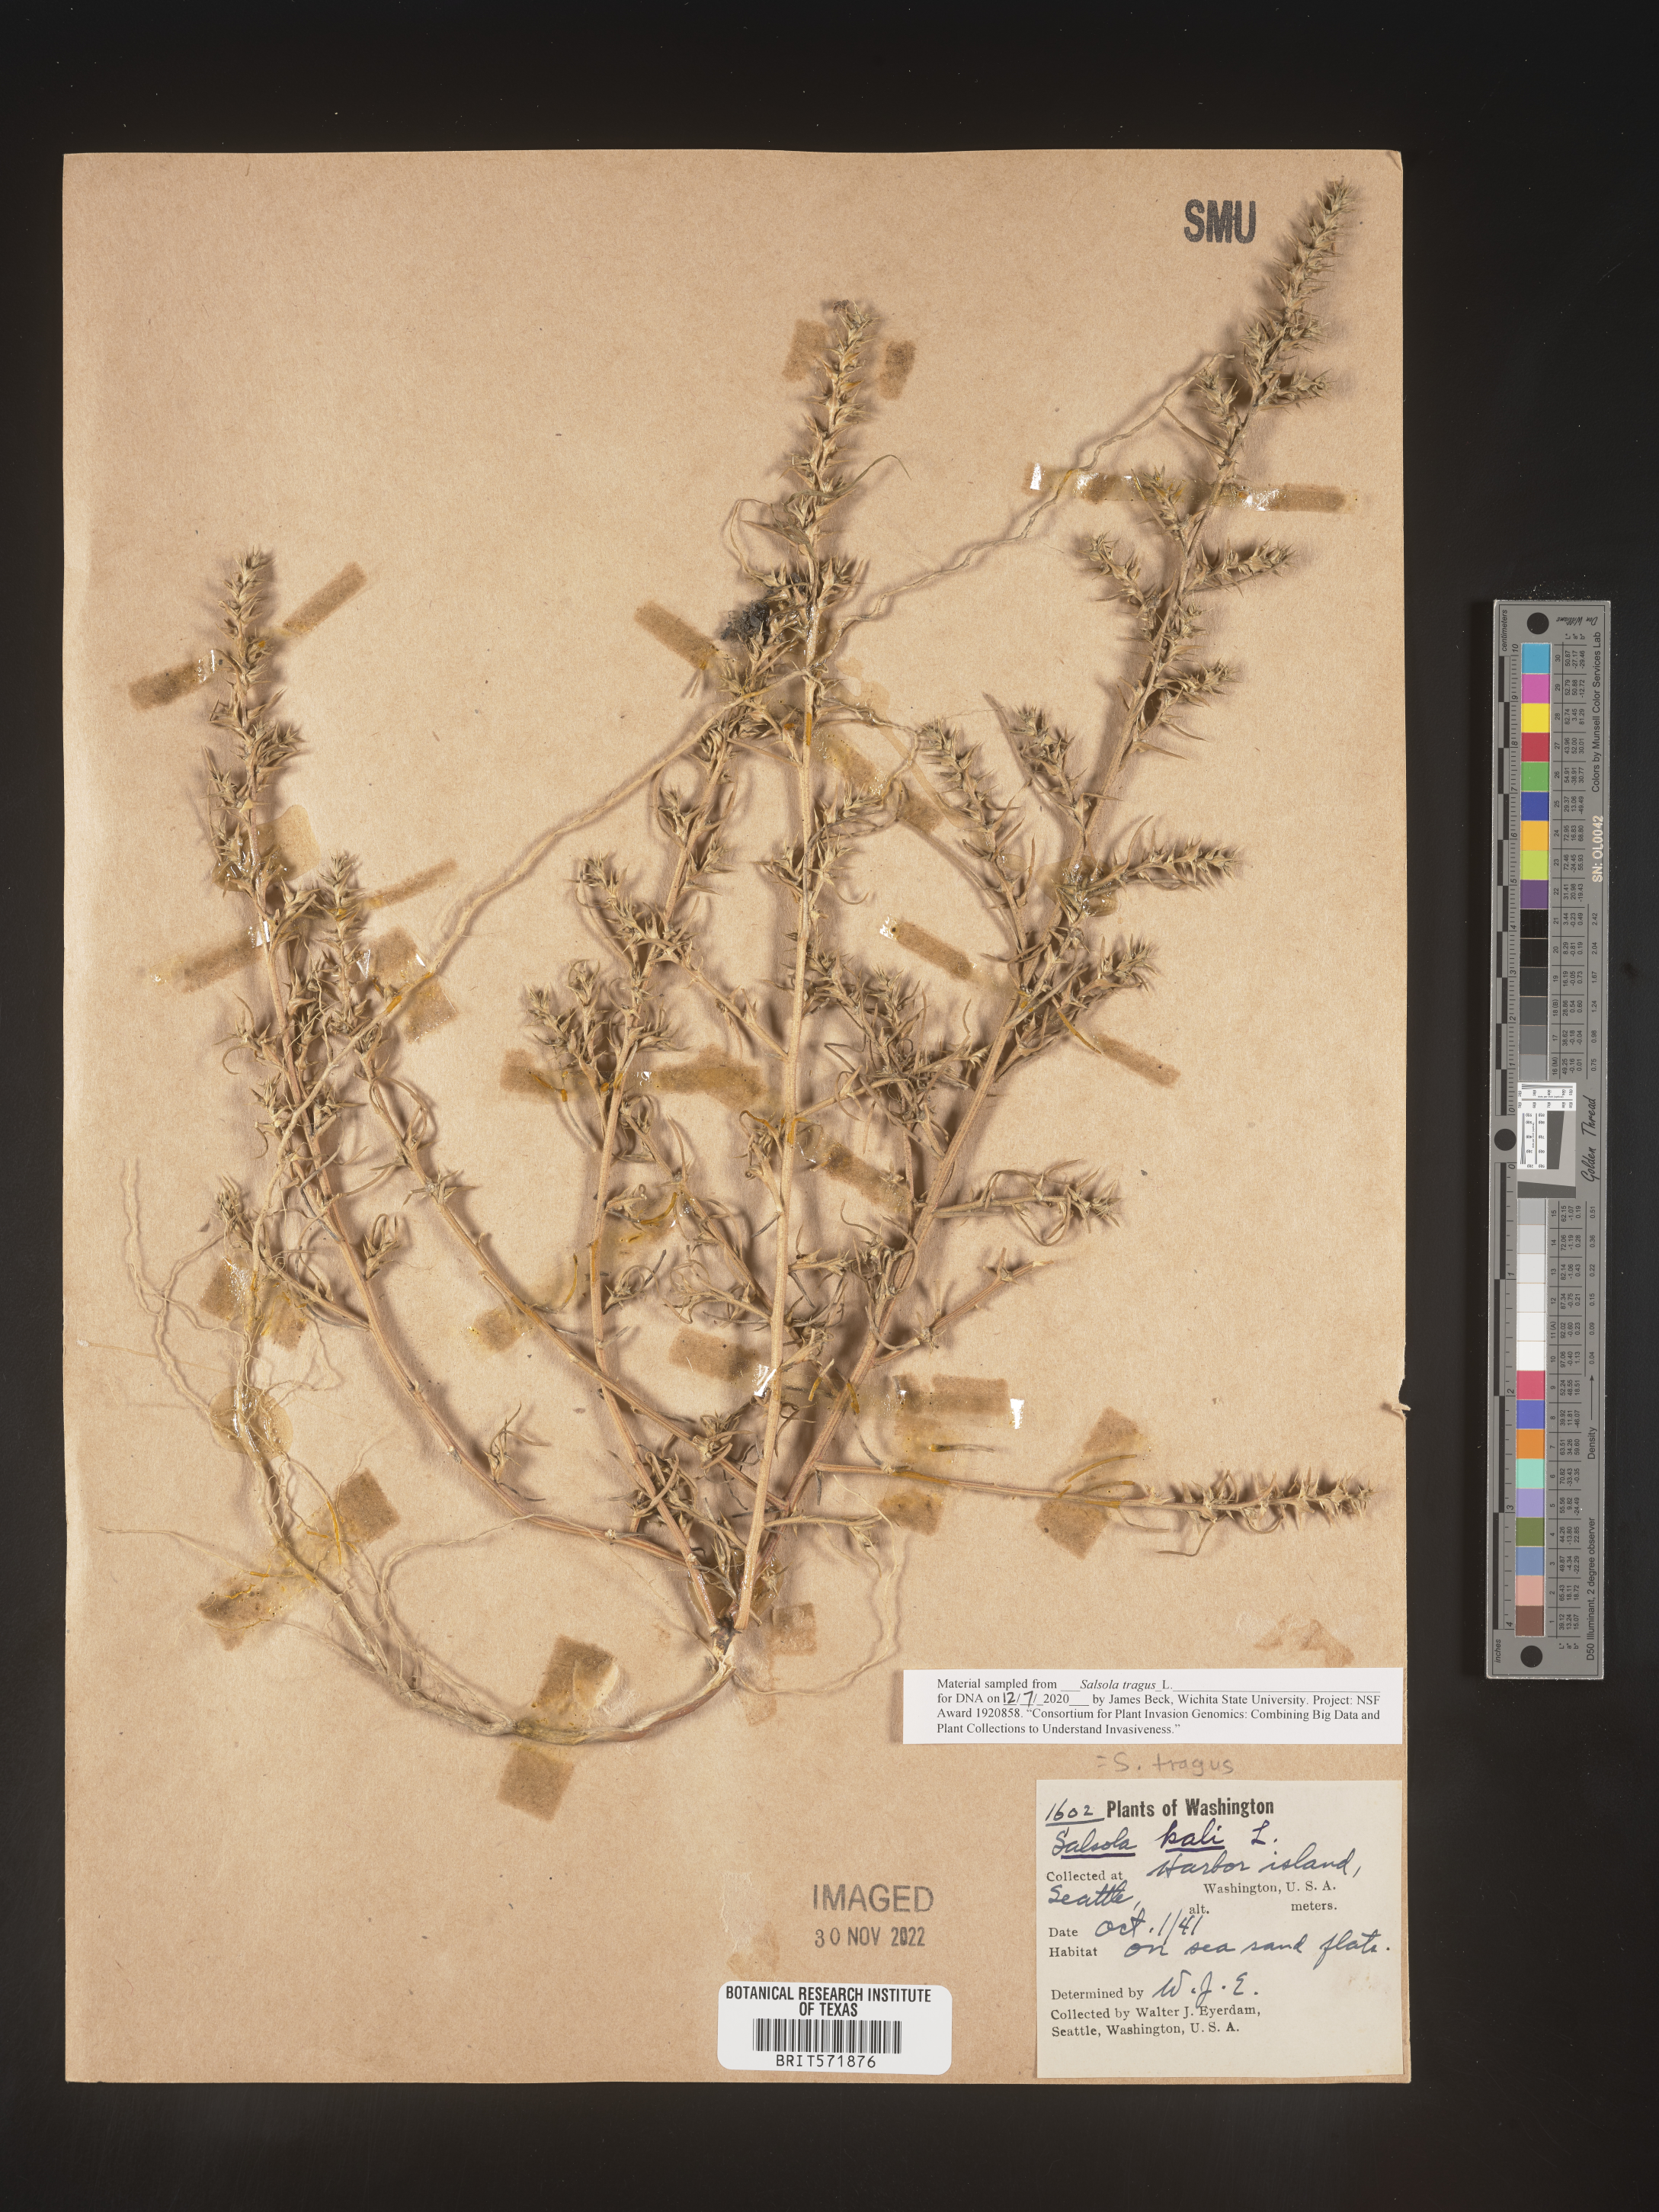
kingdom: Plantae
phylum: Tracheophyta
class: Magnoliopsida
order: Caryophyllales
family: Amaranthaceae
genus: Salsola
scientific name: Salsola tragus
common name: Prickly russian thistle
